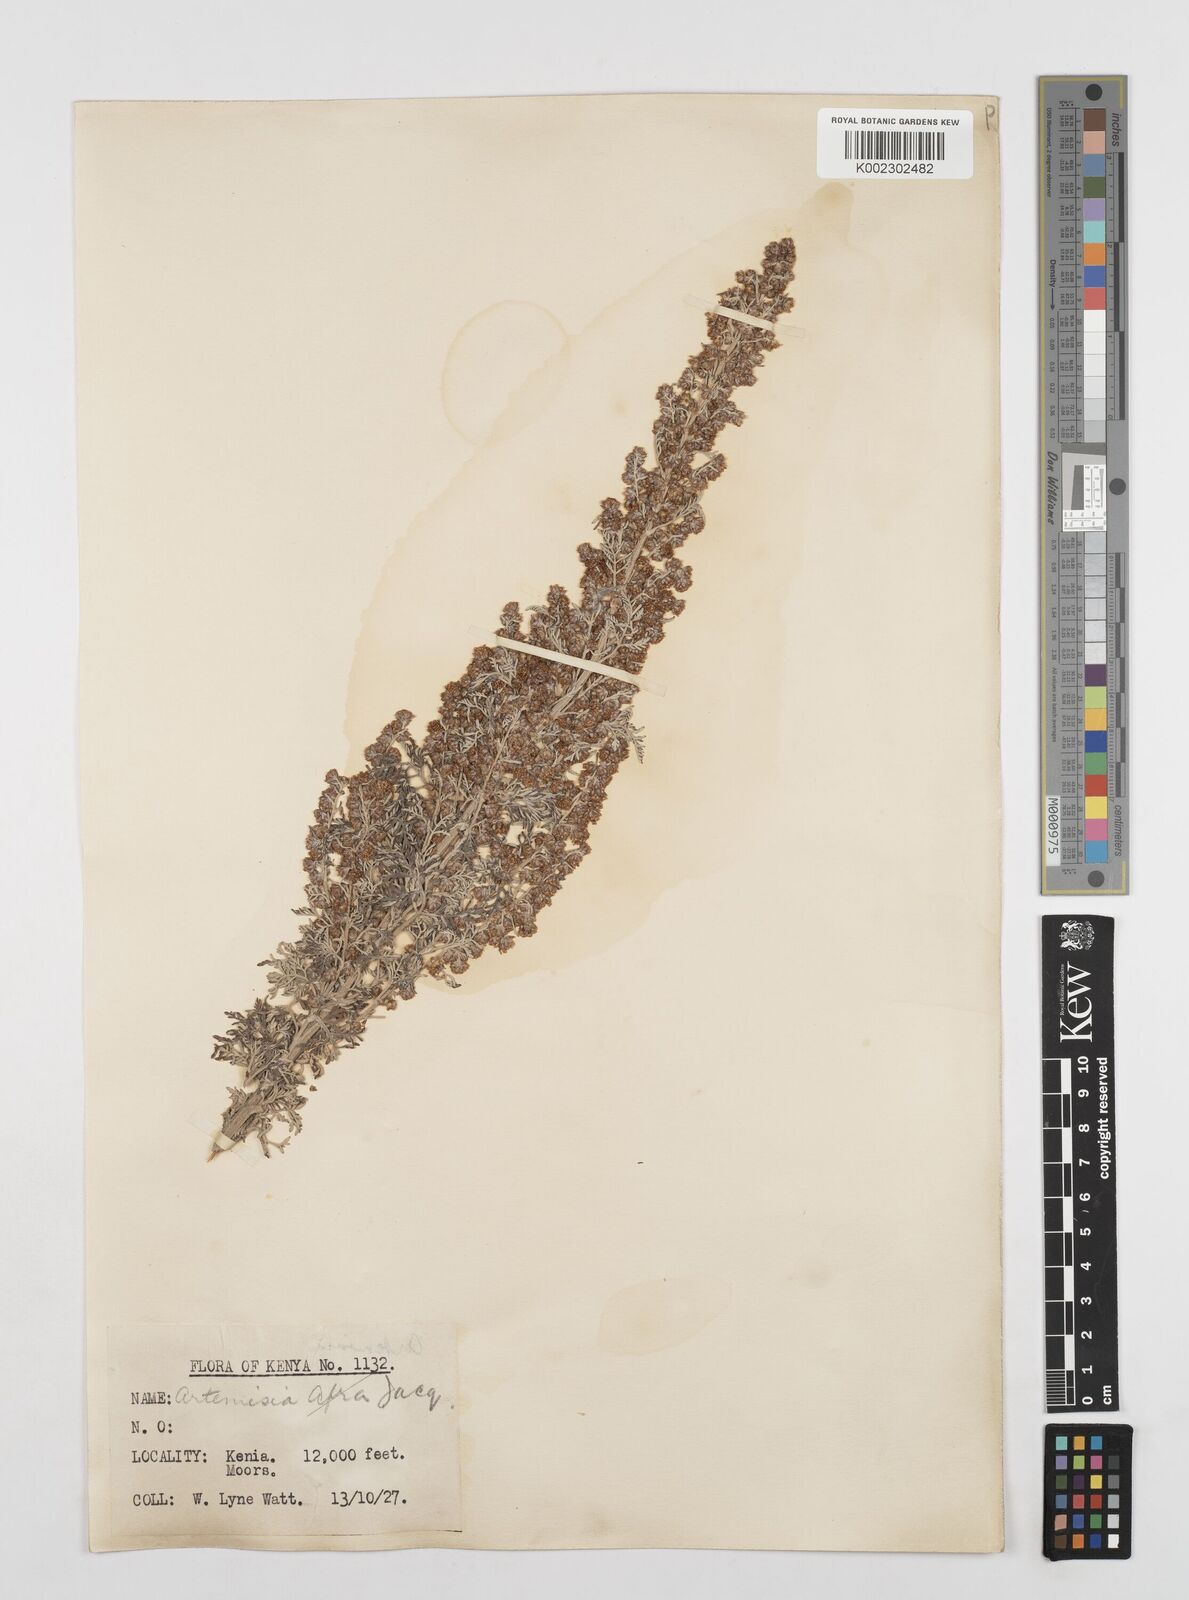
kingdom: Plantae
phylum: Tracheophyta
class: Magnoliopsida
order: Asterales
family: Asteraceae
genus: Artemisia
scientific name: Artemisia afra
